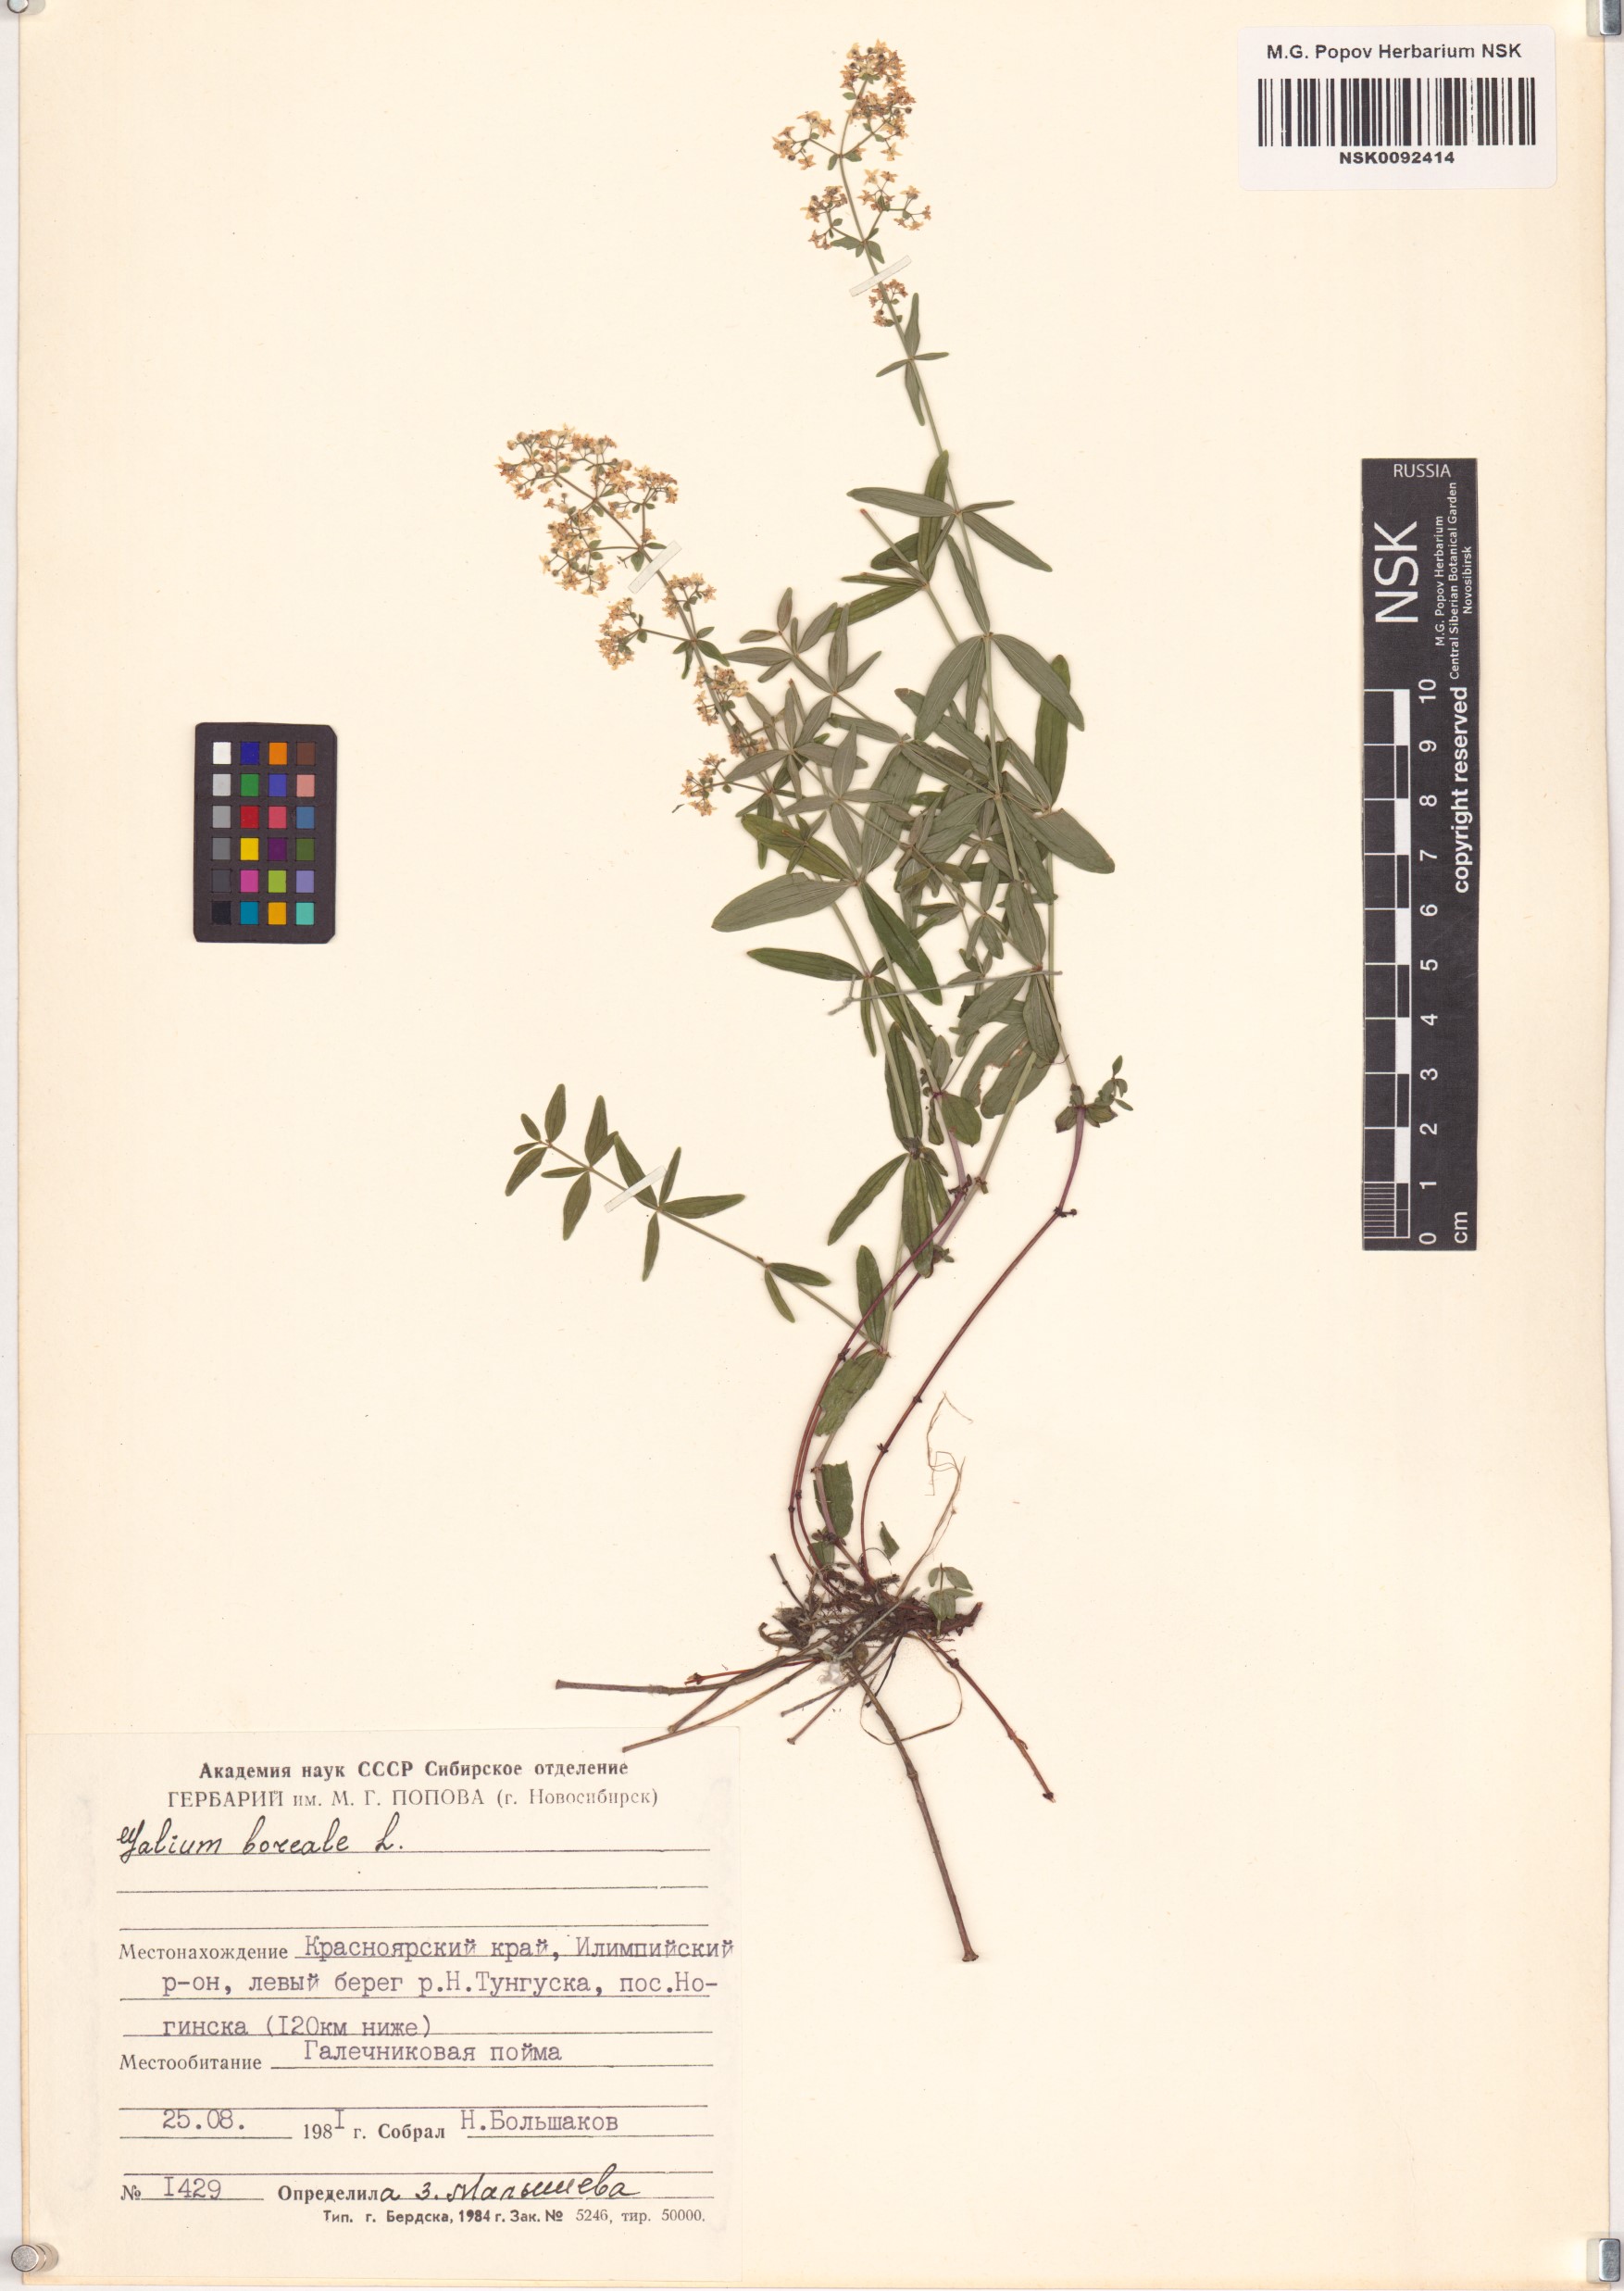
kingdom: Plantae
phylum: Tracheophyta
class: Magnoliopsida
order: Gentianales
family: Rubiaceae
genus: Galium
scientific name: Galium boreale
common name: Northern bedstraw
